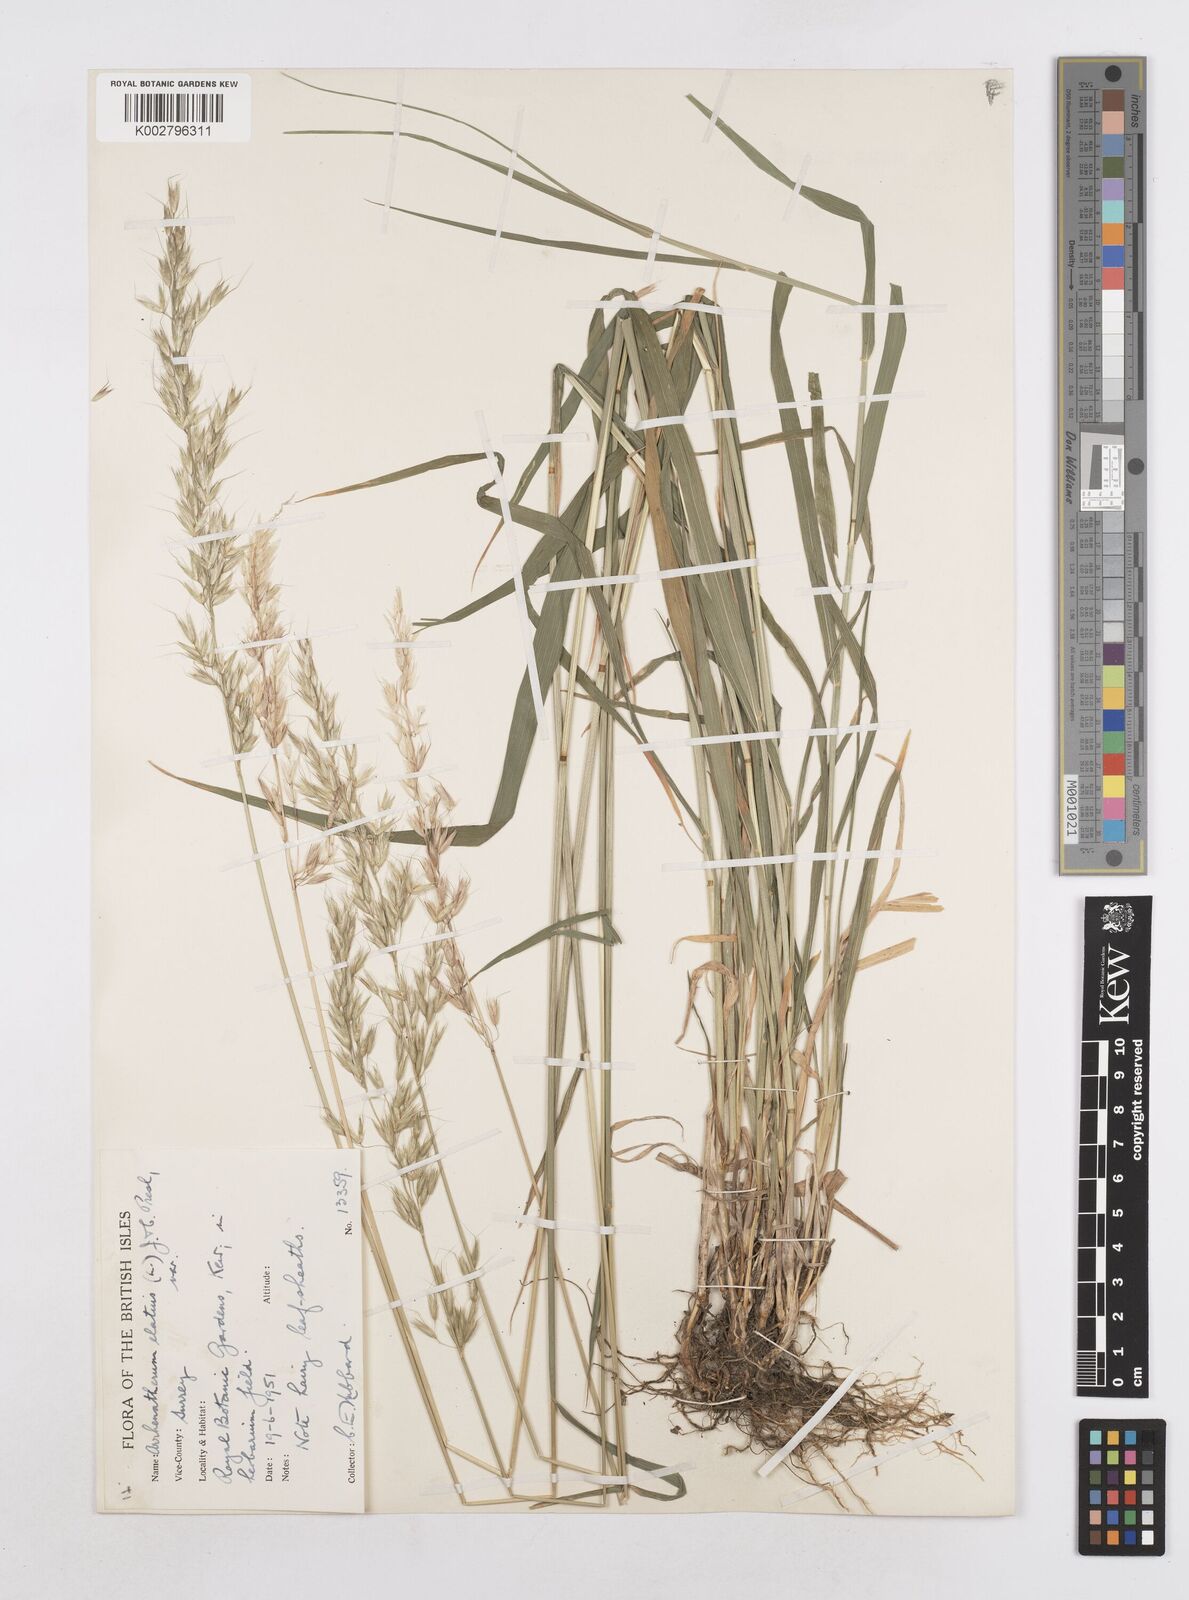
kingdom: Plantae
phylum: Tracheophyta
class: Liliopsida
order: Poales
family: Poaceae
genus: Arrhenatherum
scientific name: Arrhenatherum elatius
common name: Tall oatgrass
